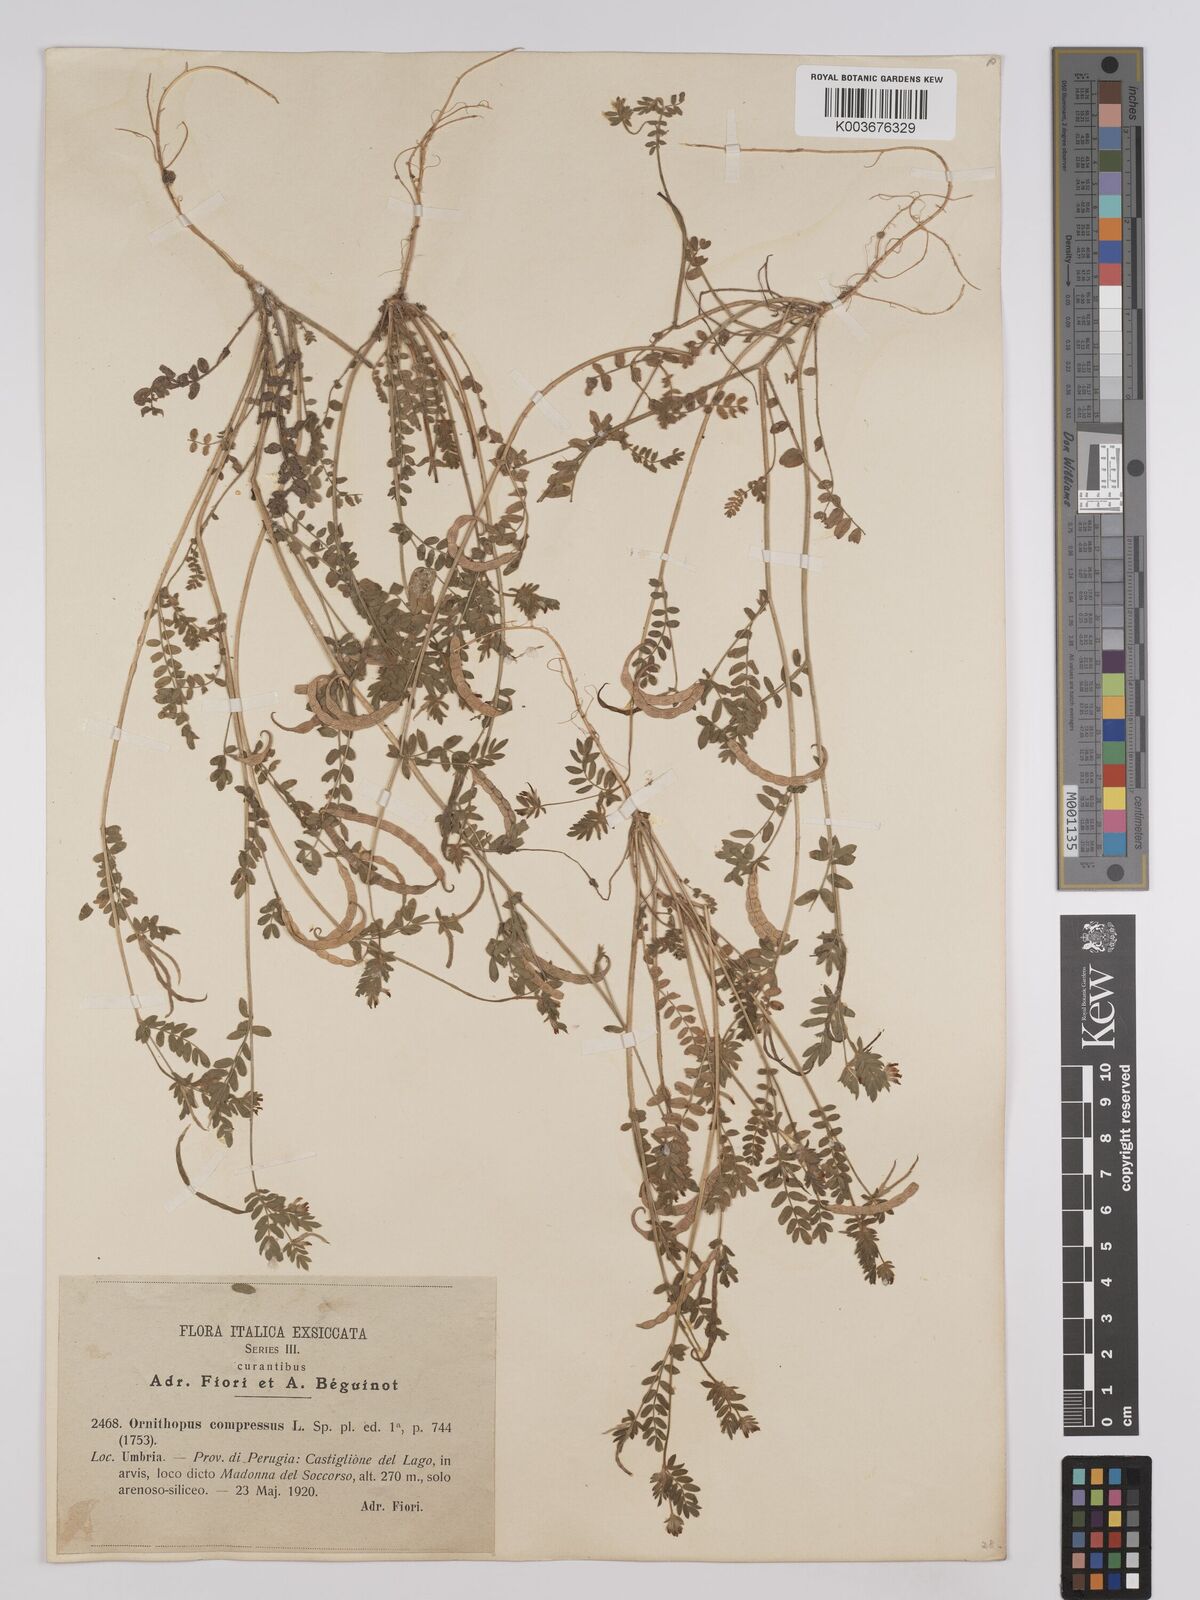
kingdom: Plantae
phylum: Tracheophyta
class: Magnoliopsida
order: Fabales
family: Fabaceae
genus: Ornithopus
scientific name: Ornithopus compressus
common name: Yellow serradella
